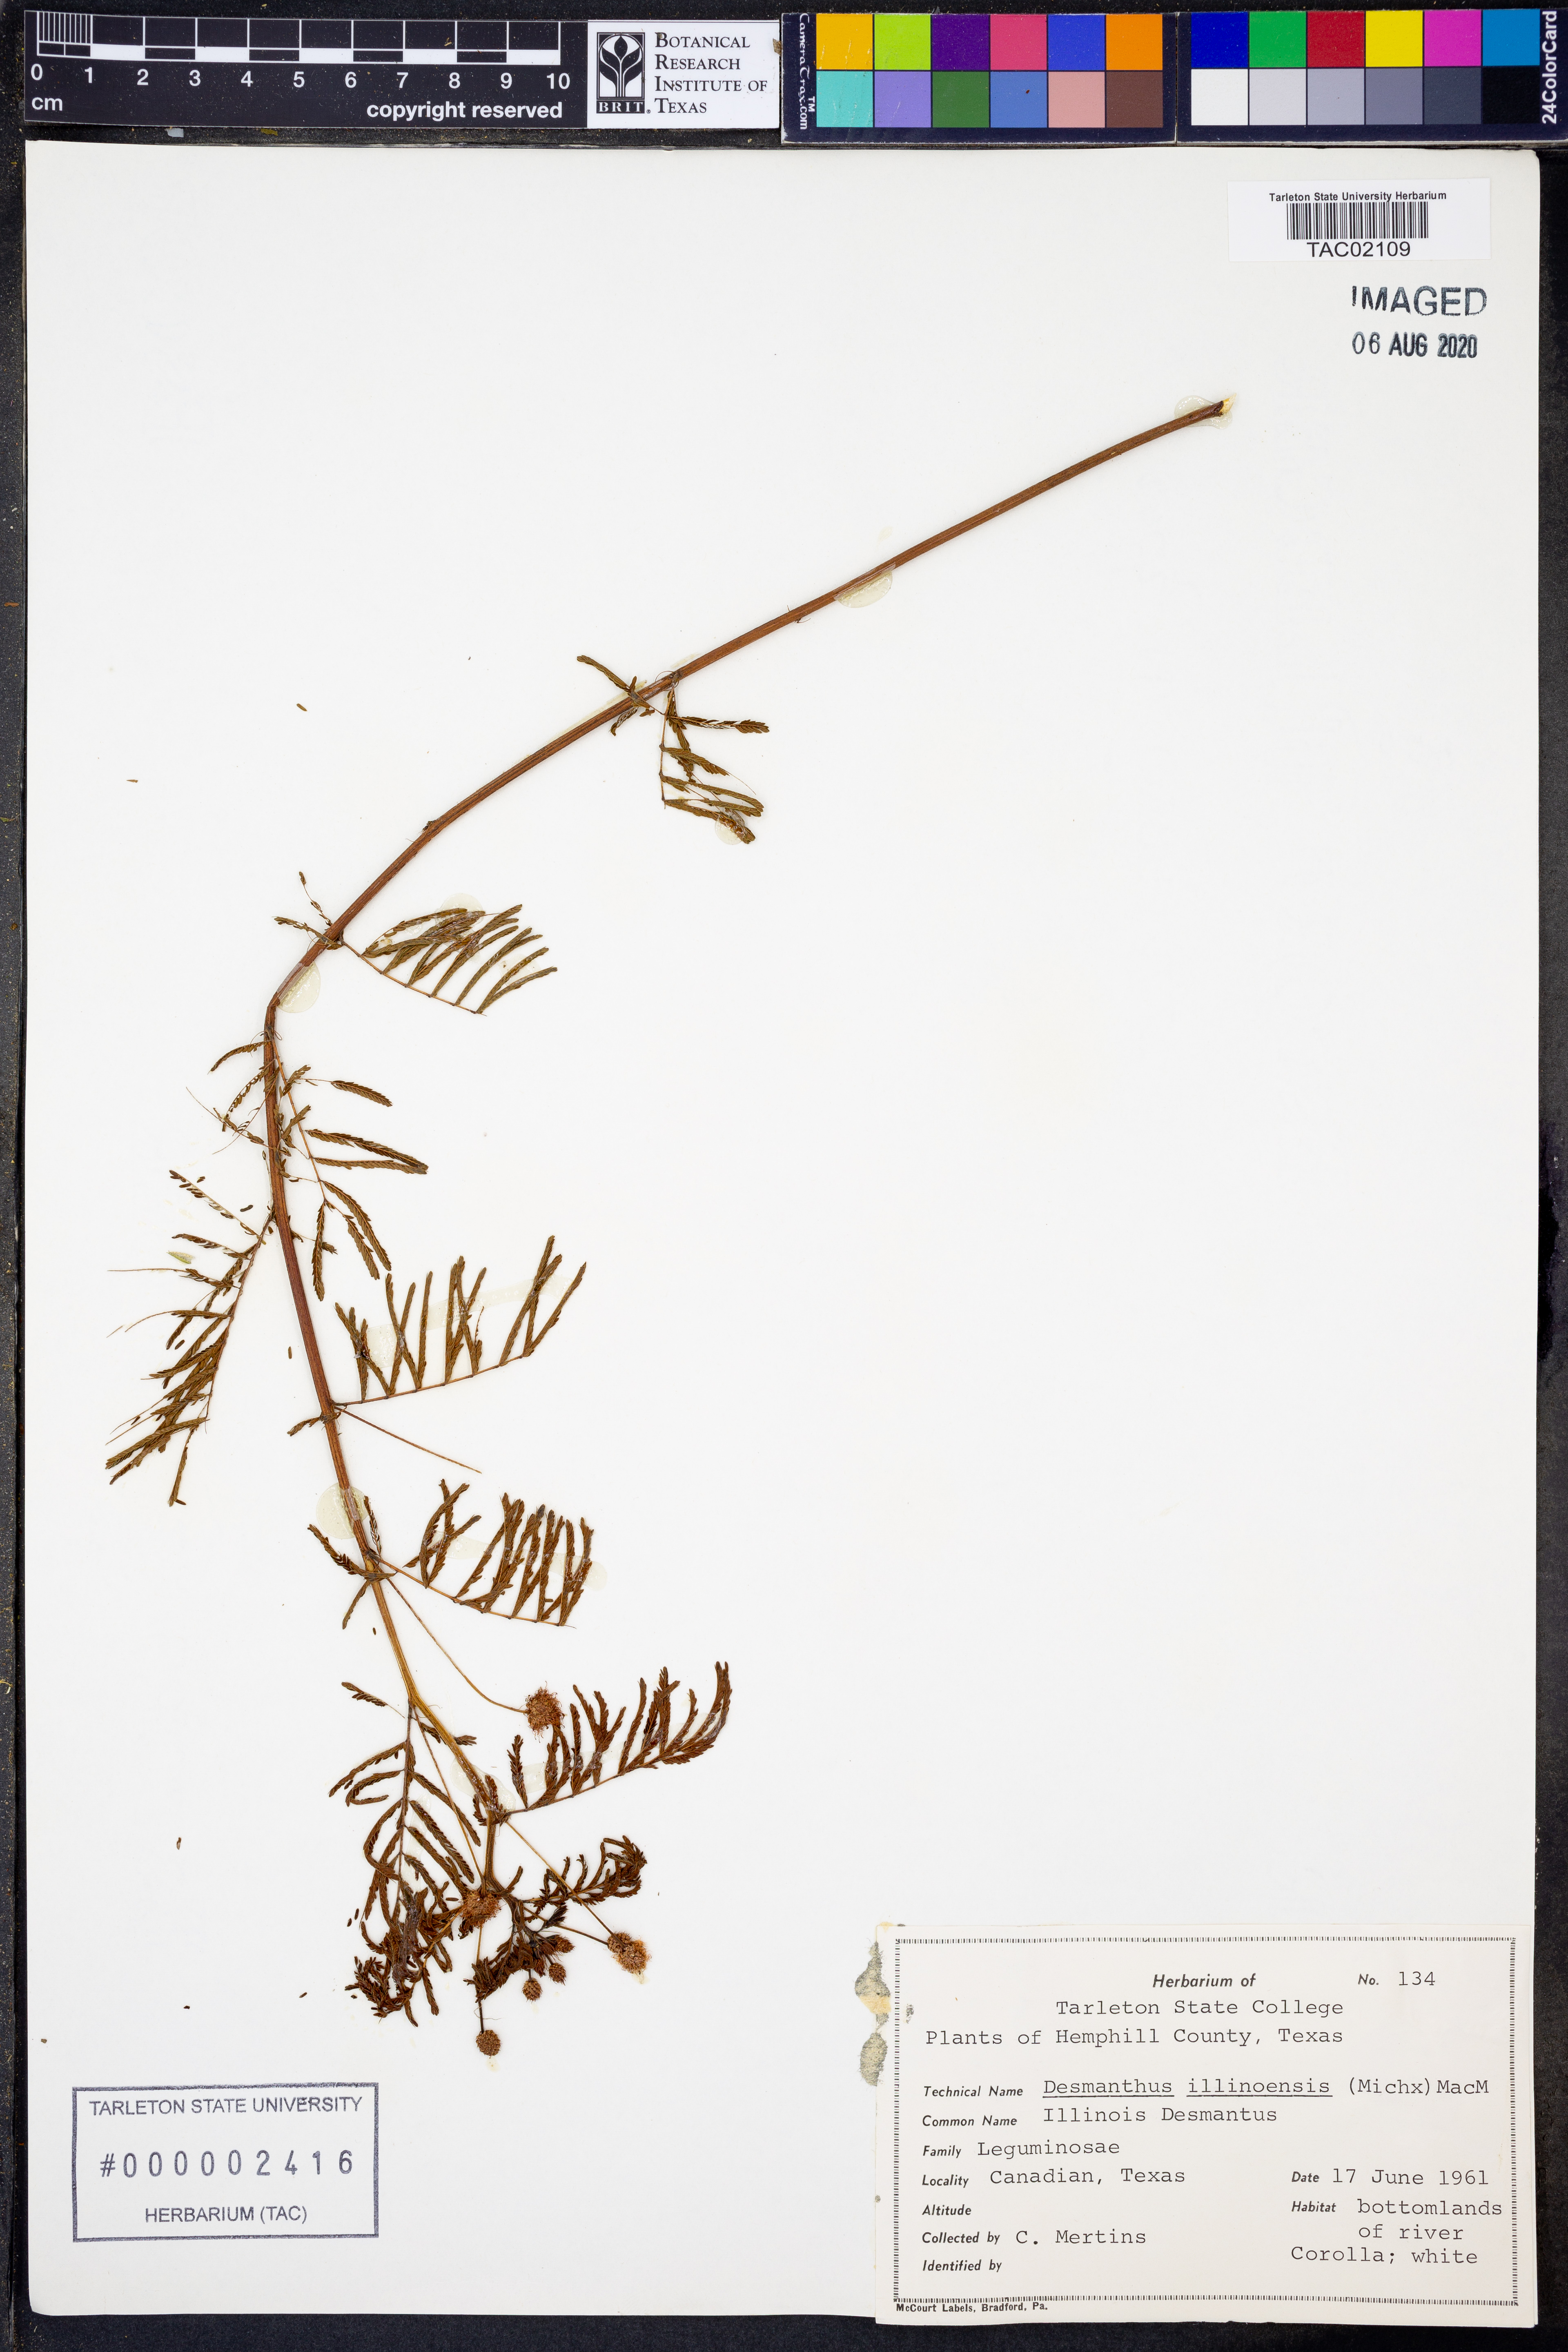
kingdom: Plantae
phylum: Tracheophyta
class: Magnoliopsida
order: Fabales
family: Fabaceae
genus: Desmanthus
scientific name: Desmanthus illinoensis
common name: Illinois bundle-flower
